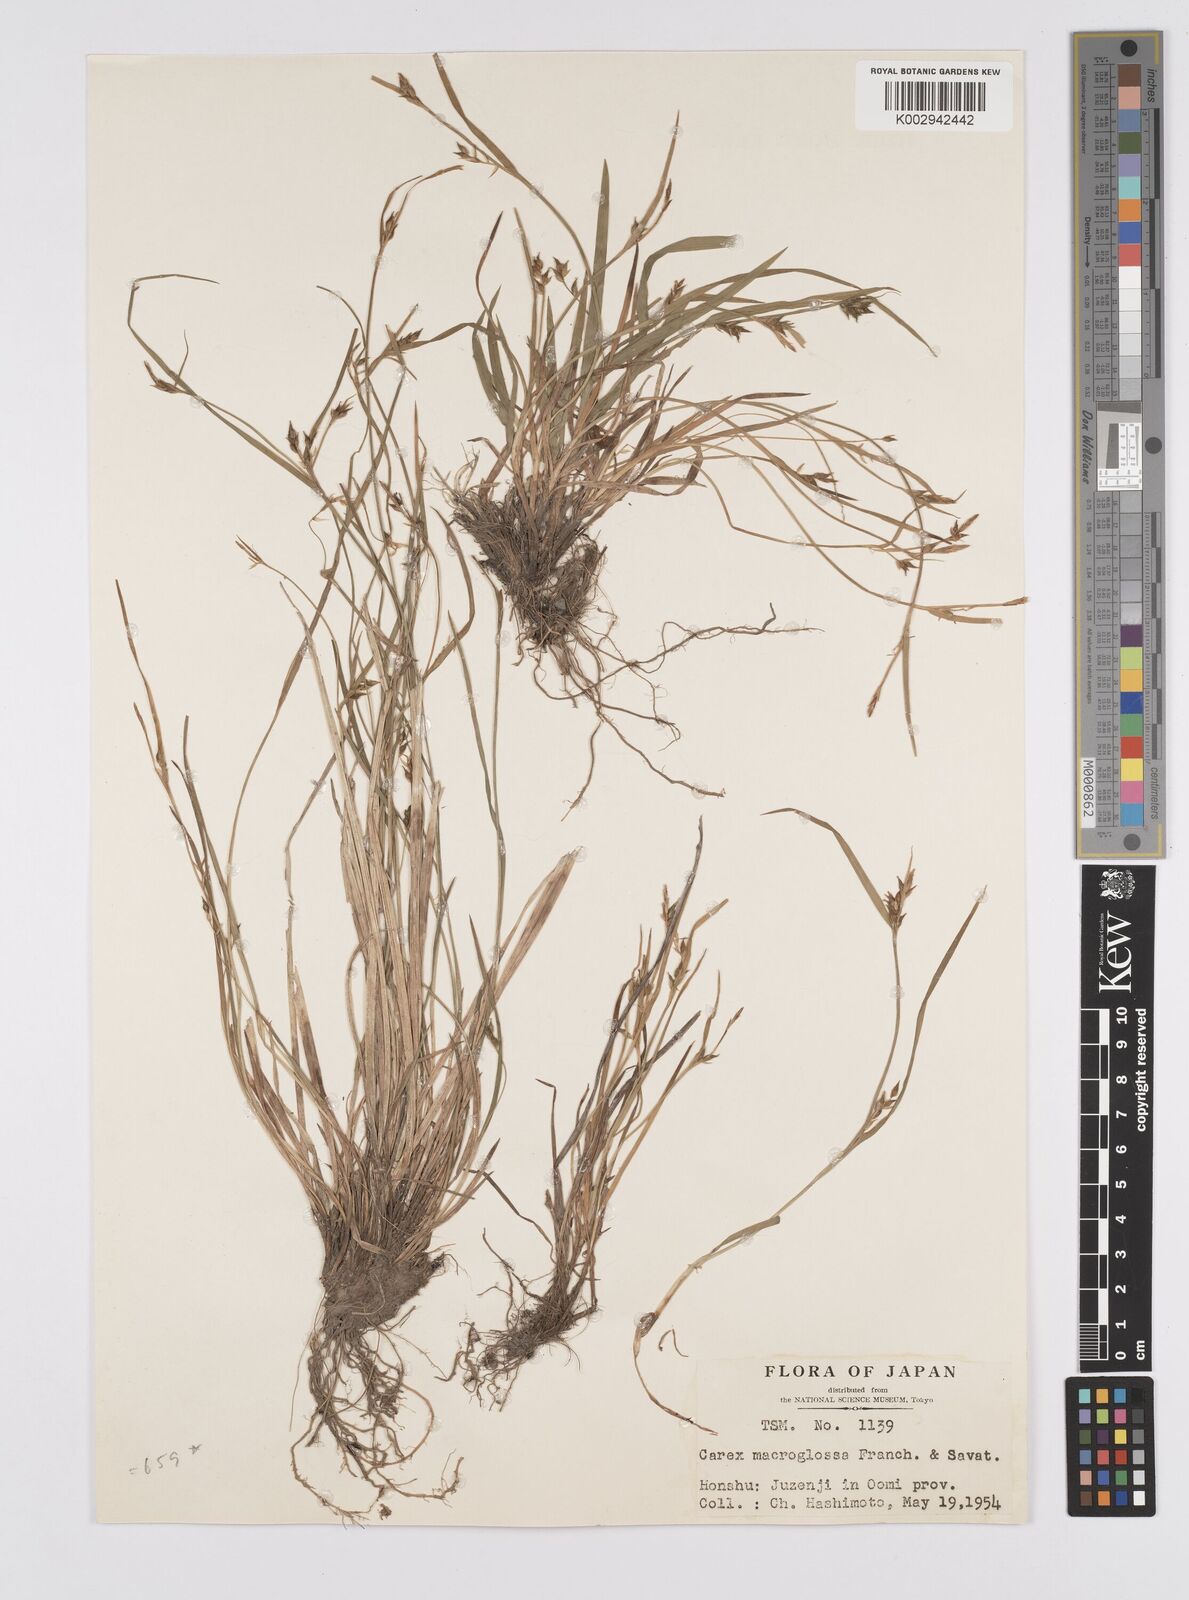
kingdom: Plantae
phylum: Tracheophyta
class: Liliopsida
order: Poales
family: Cyperaceae
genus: Carex
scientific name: Carex jackiana
